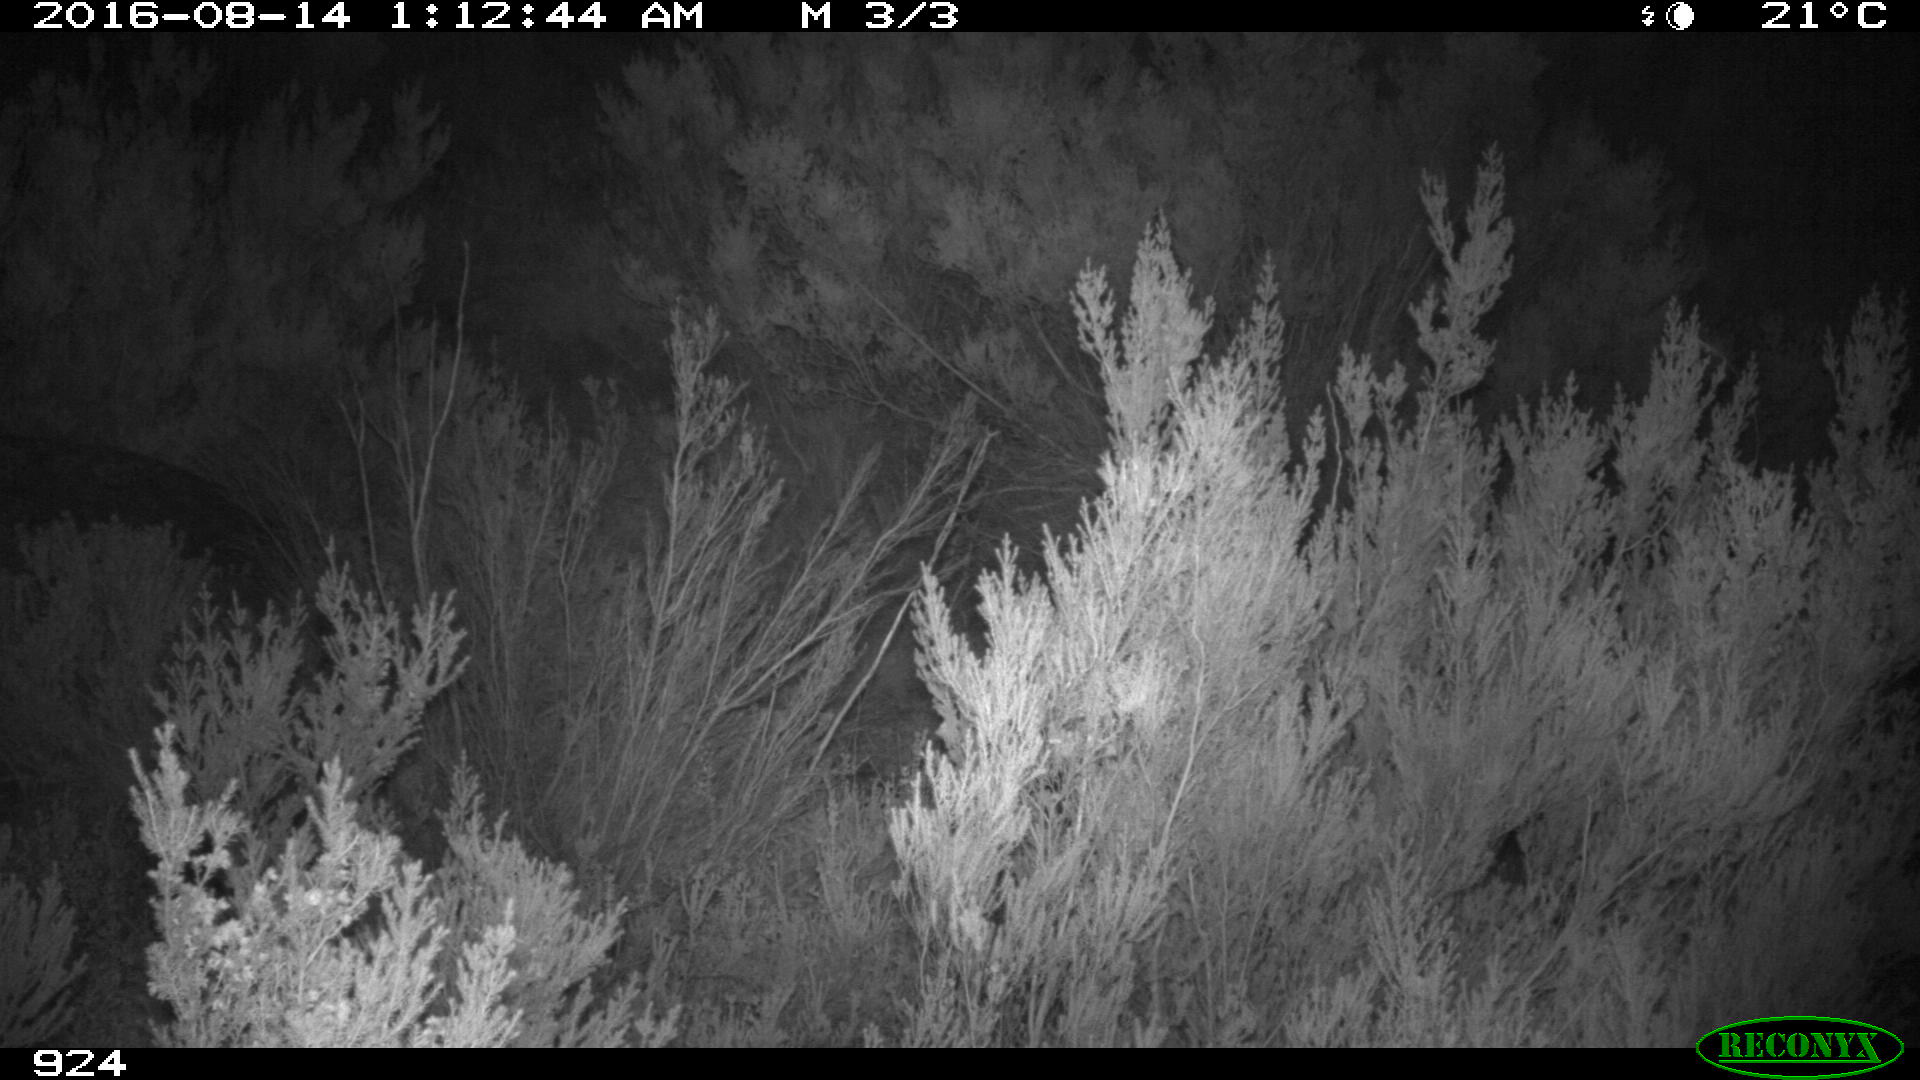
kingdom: Animalia
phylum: Chordata
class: Mammalia
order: Perissodactyla
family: Equidae
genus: Equus
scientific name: Equus caballus
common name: Horse
